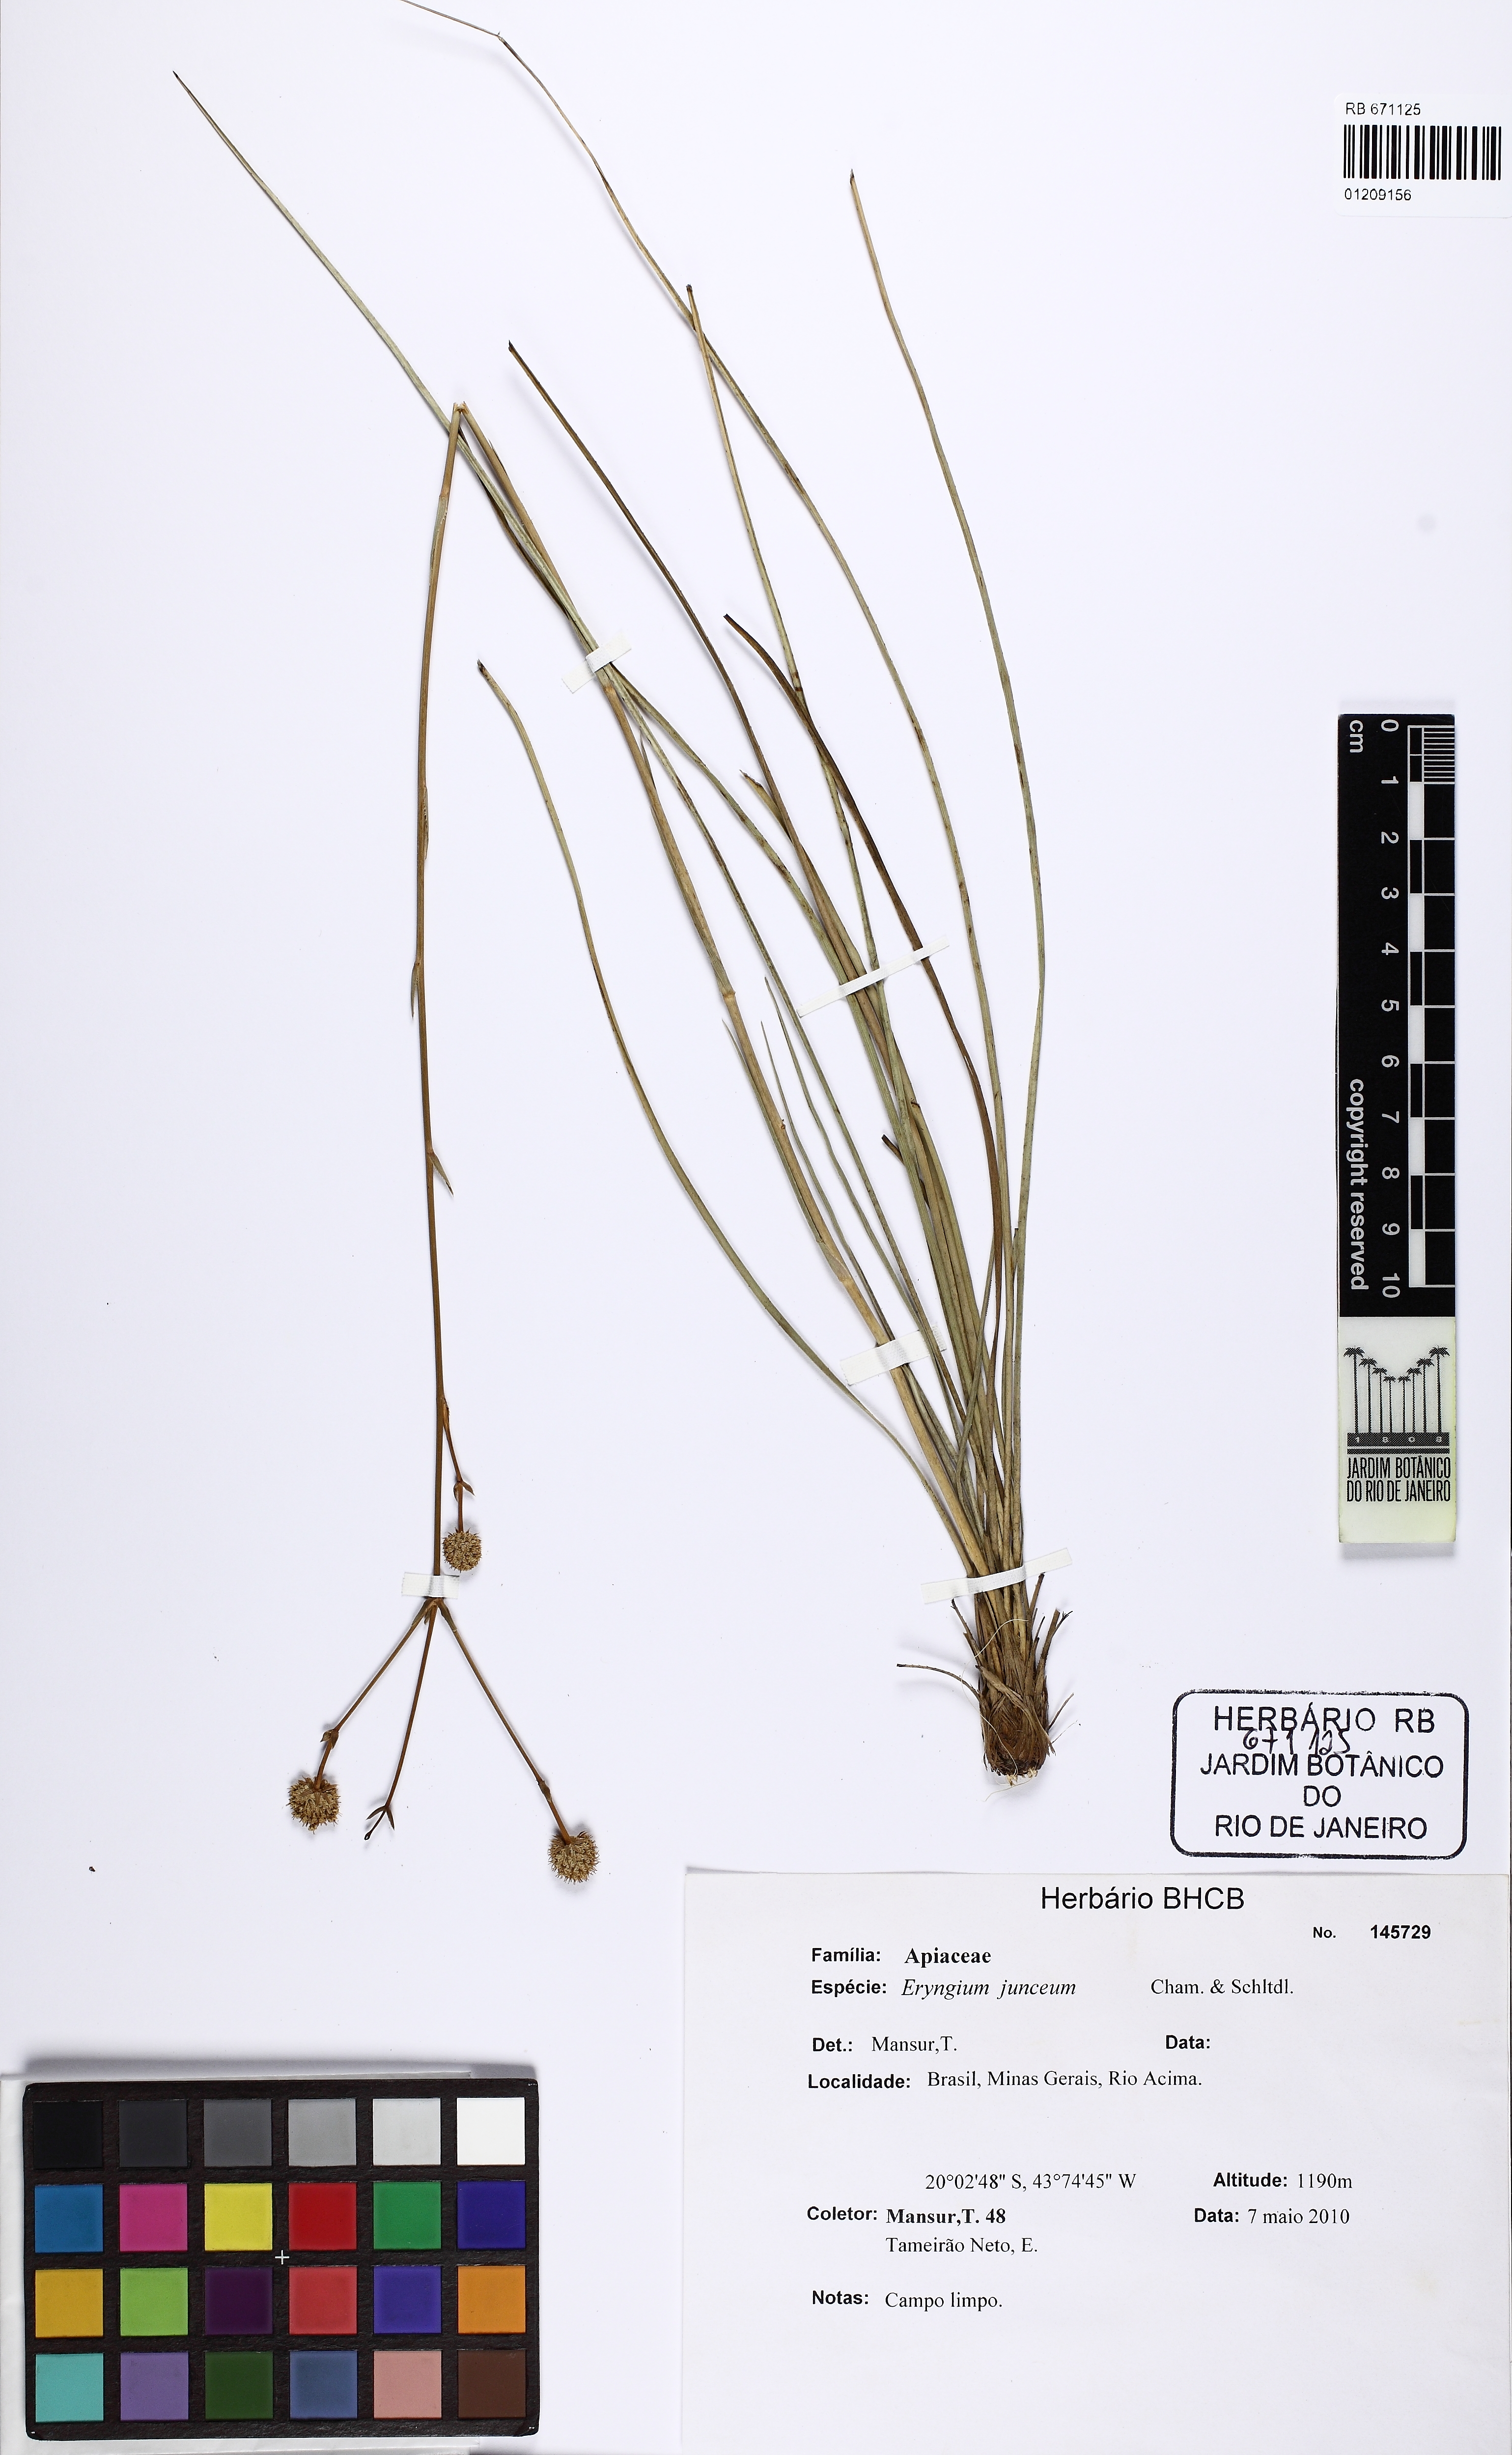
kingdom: Plantae
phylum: Tracheophyta
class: Magnoliopsida
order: Apiales
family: Apiaceae
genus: Eryngium
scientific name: Eryngium junceum
